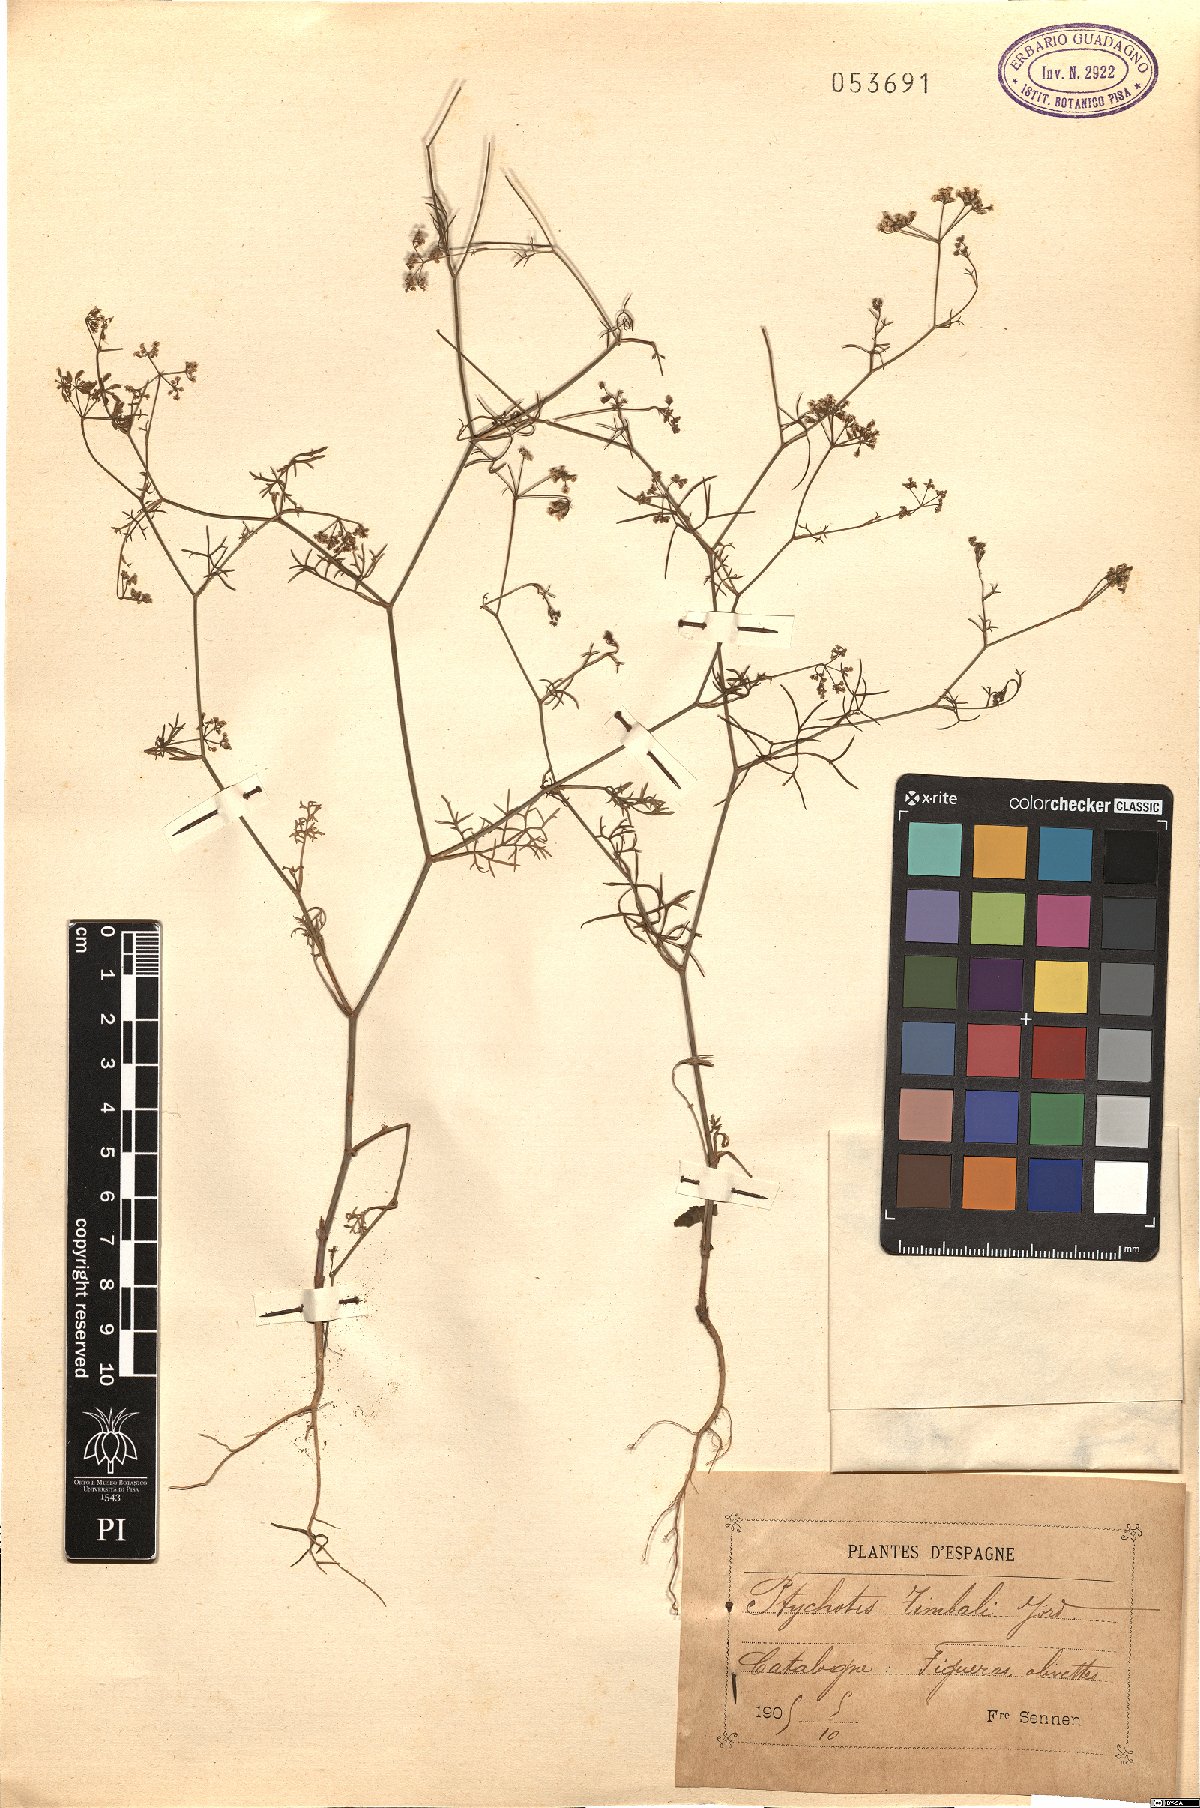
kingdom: Plantae
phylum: Tracheophyta
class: Magnoliopsida
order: Apiales
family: Apiaceae
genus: Ptychotis
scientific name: Ptychotis saxifraga
